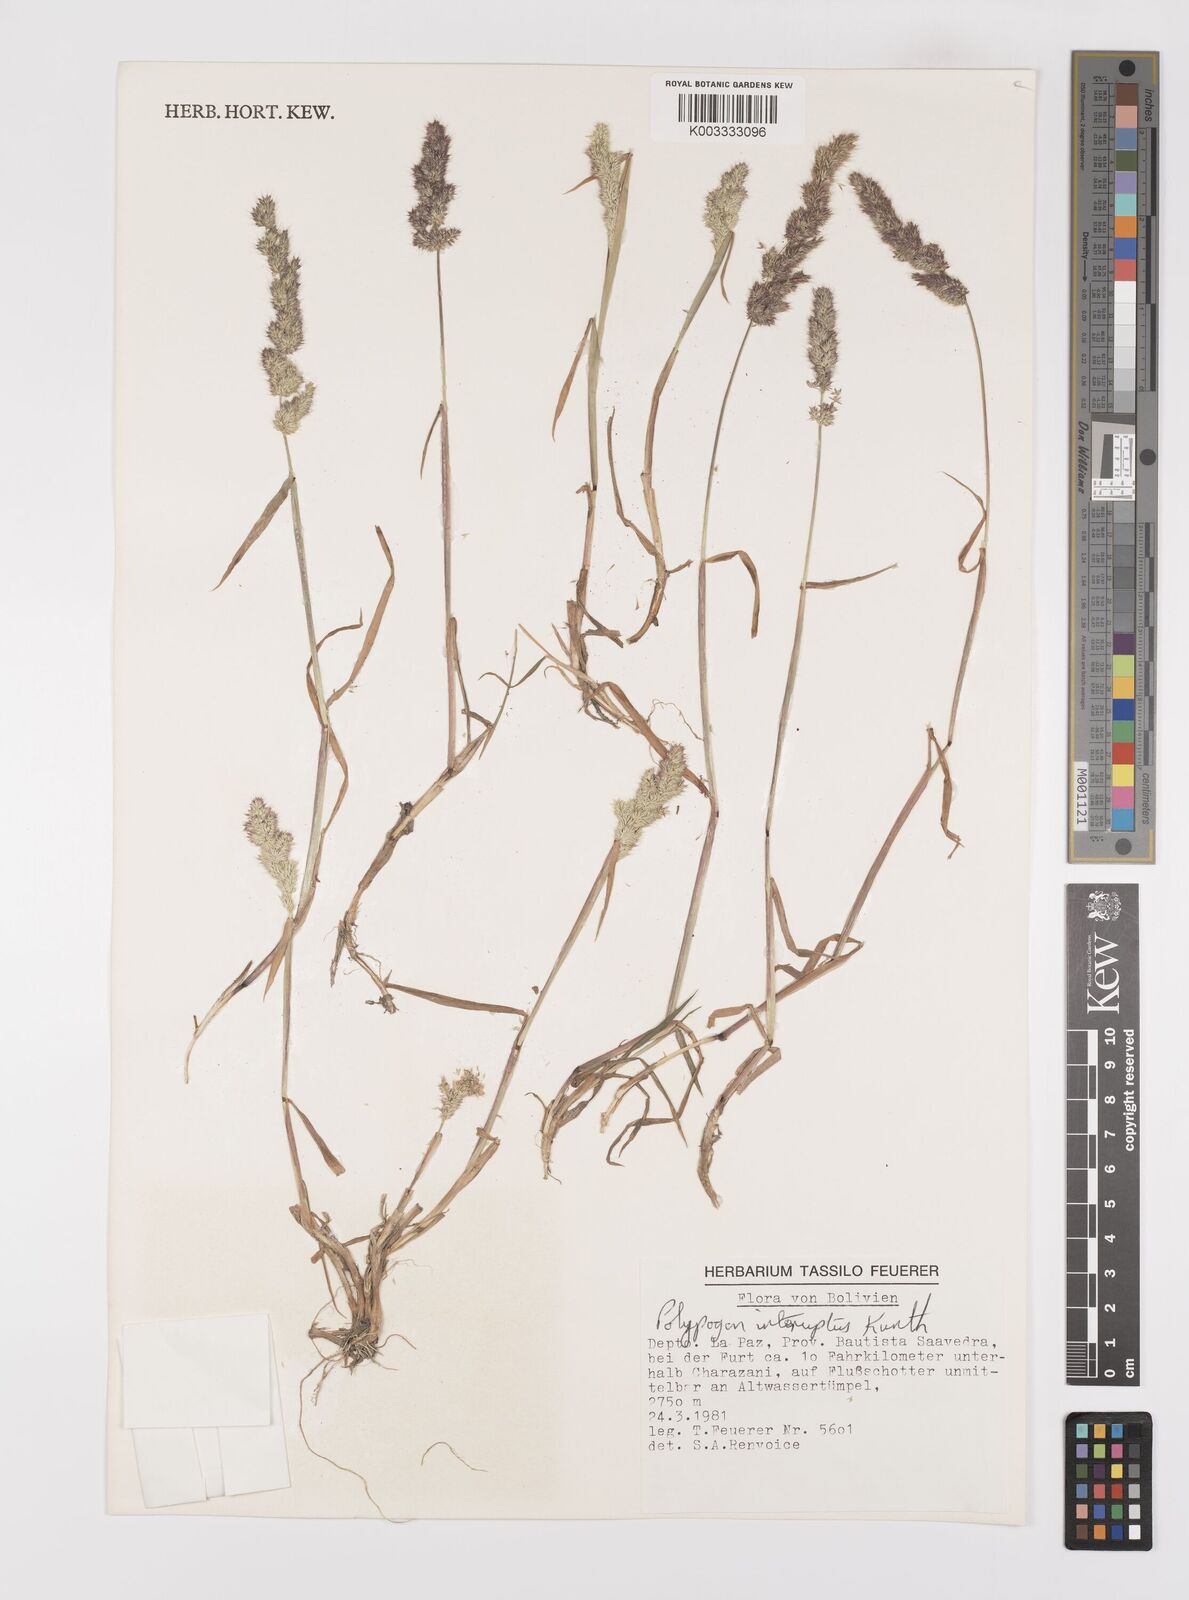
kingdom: Plantae
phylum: Tracheophyta
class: Liliopsida
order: Poales
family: Poaceae
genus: Polypogon
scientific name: Polypogon interruptus
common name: Ditch polypogon
